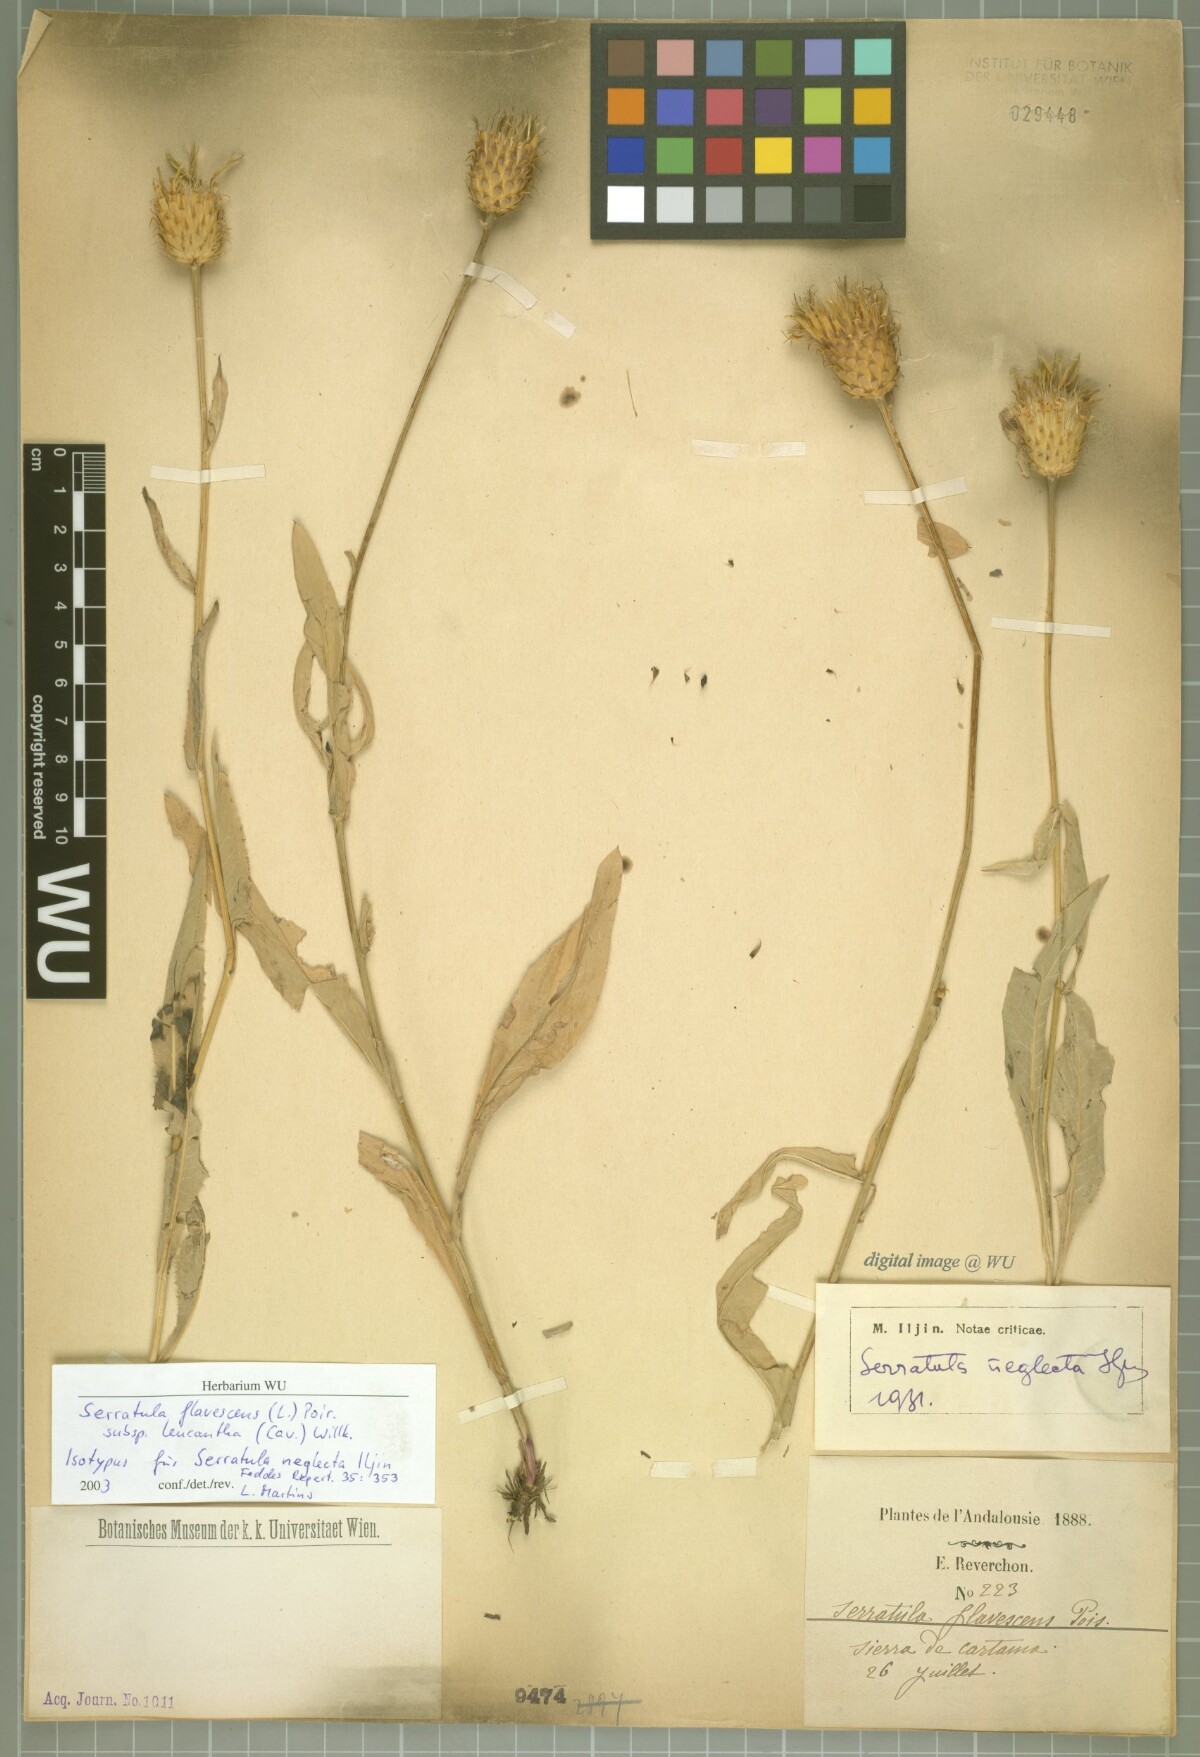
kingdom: Plantae
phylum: Tracheophyta
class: Magnoliopsida
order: Asterales
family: Asteraceae
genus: Klasea
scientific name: Klasea flavescens
